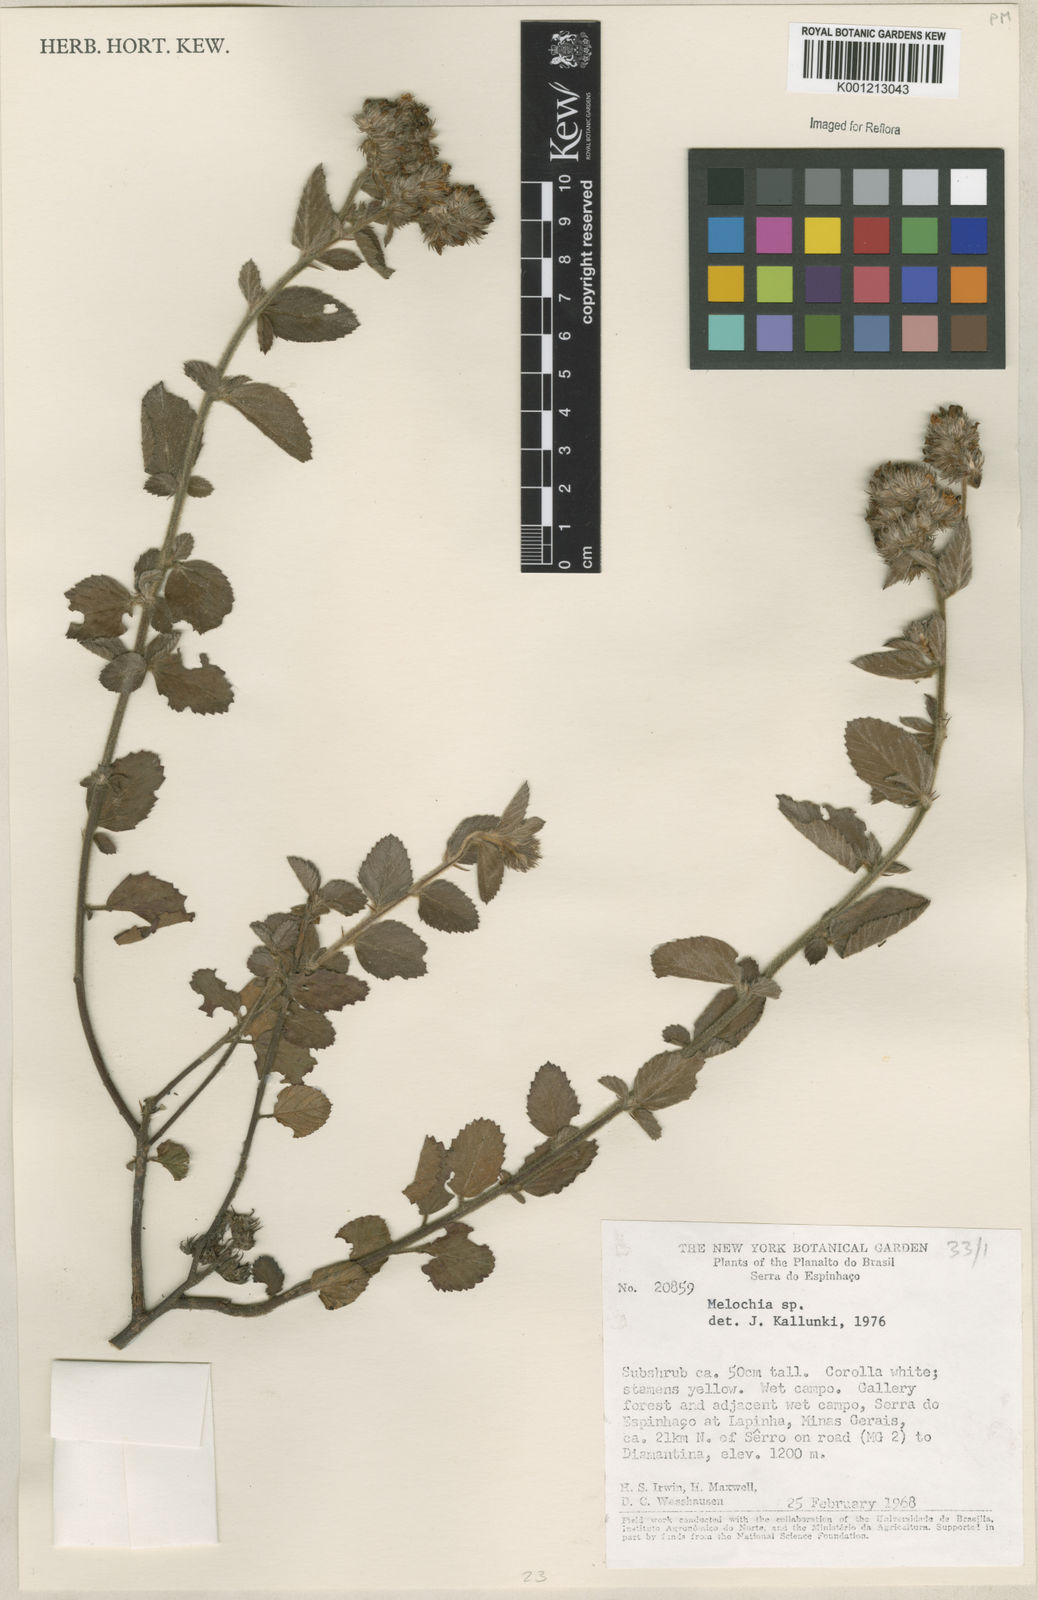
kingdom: Plantae
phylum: Tracheophyta
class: Magnoliopsida
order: Malvales
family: Malvaceae
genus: Melochia
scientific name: Melochia
